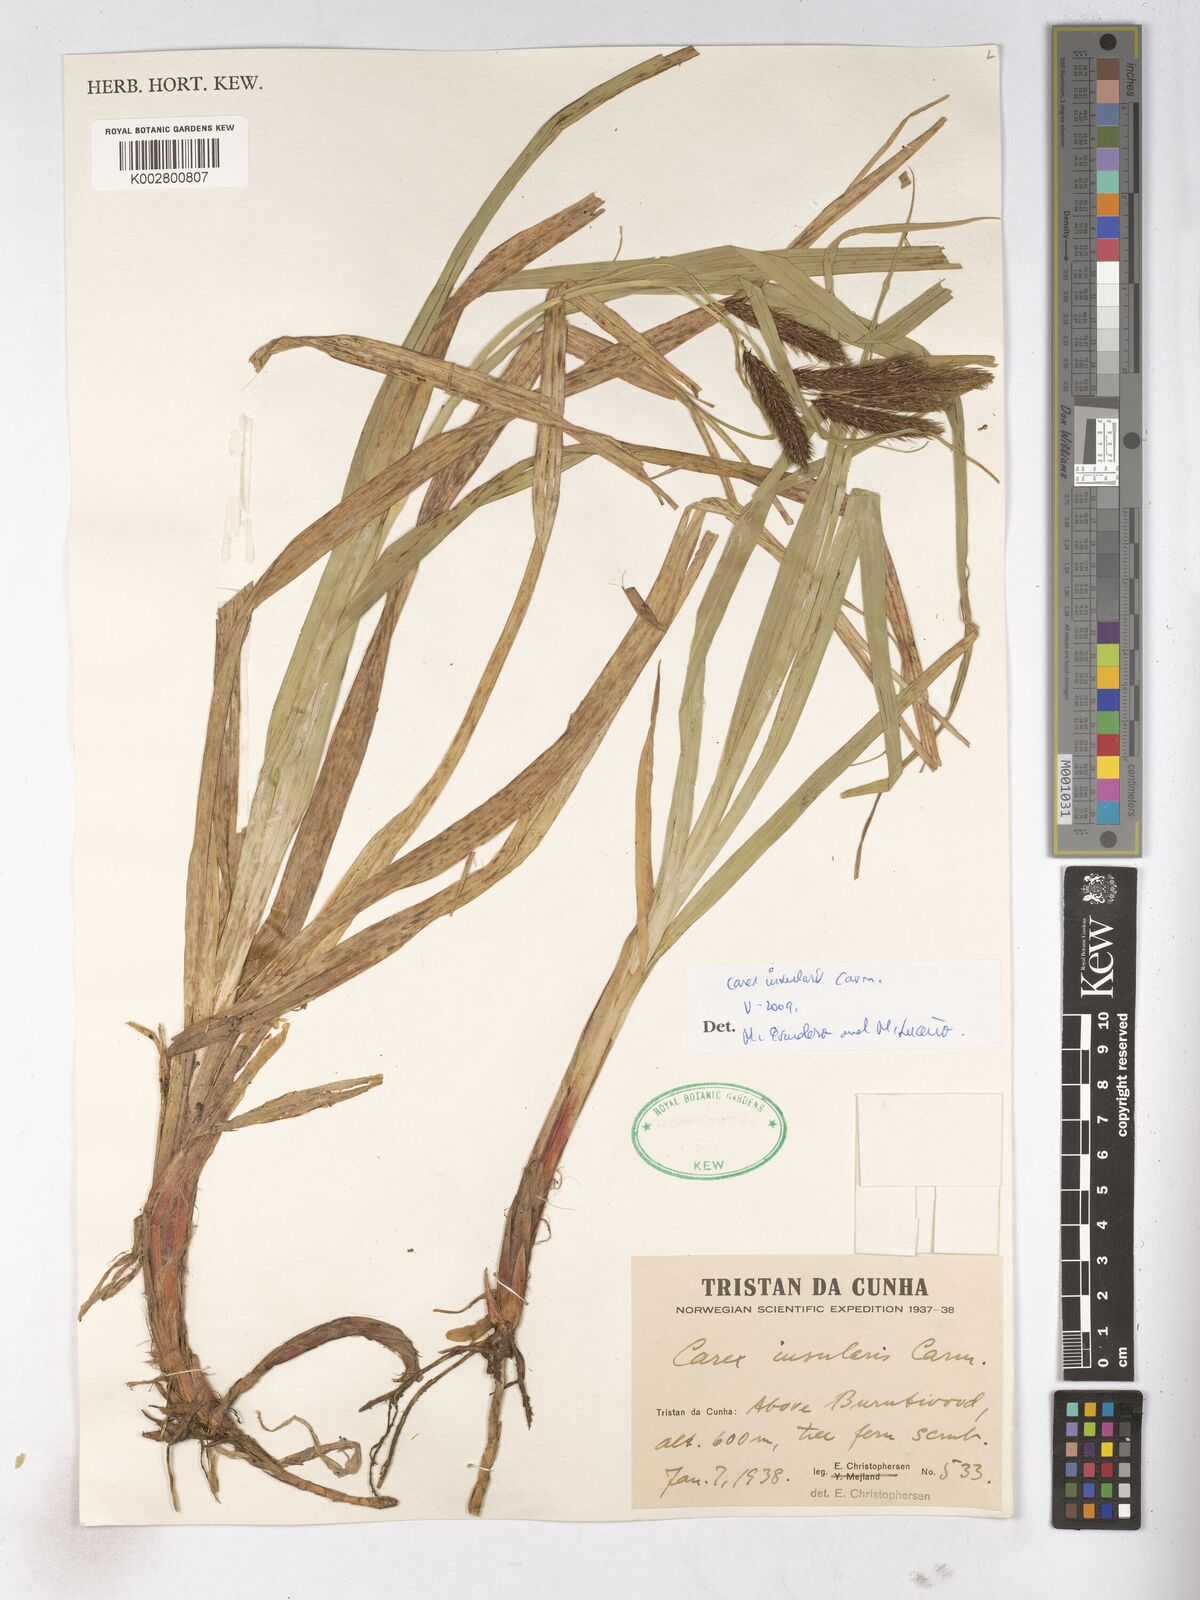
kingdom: Plantae
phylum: Tracheophyta
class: Liliopsida
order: Poales
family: Cyperaceae
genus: Carex
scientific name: Carex insularis
